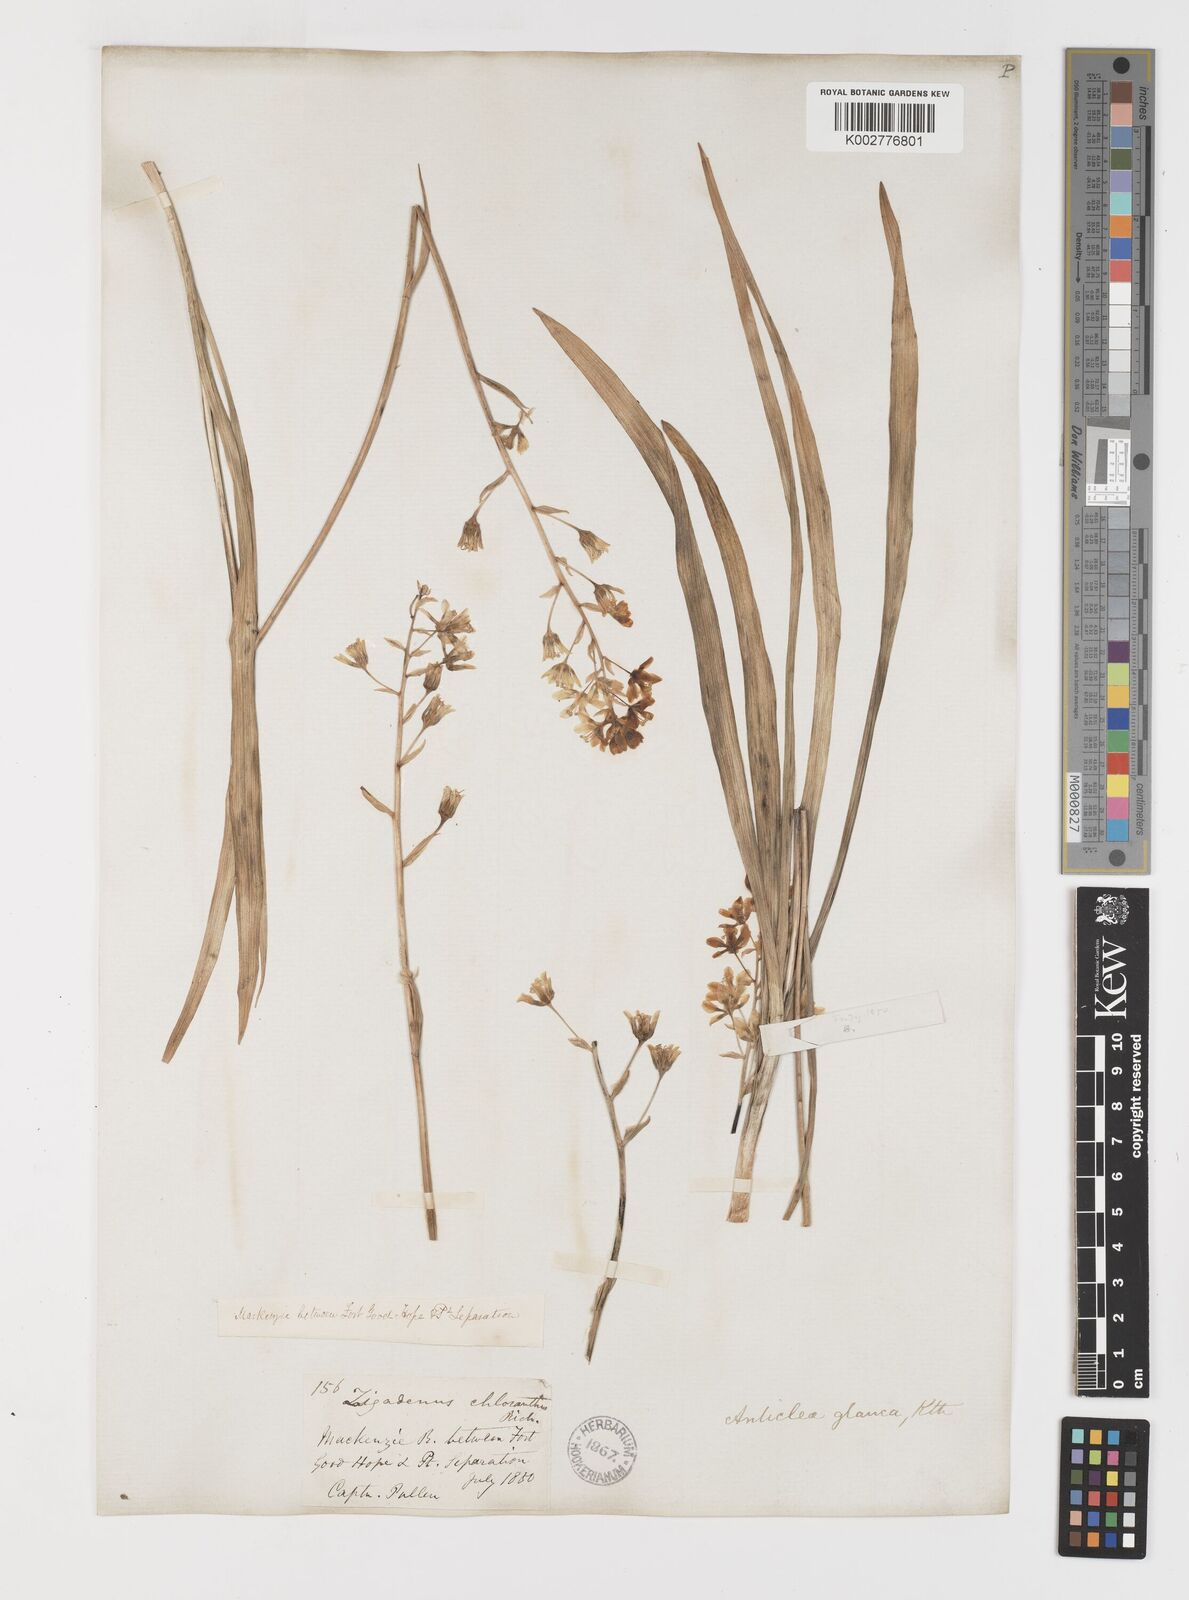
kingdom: Plantae
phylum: Tracheophyta
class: Liliopsida
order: Liliales
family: Melanthiaceae
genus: Anticlea
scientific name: Anticlea elegans
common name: Mountain death camas
